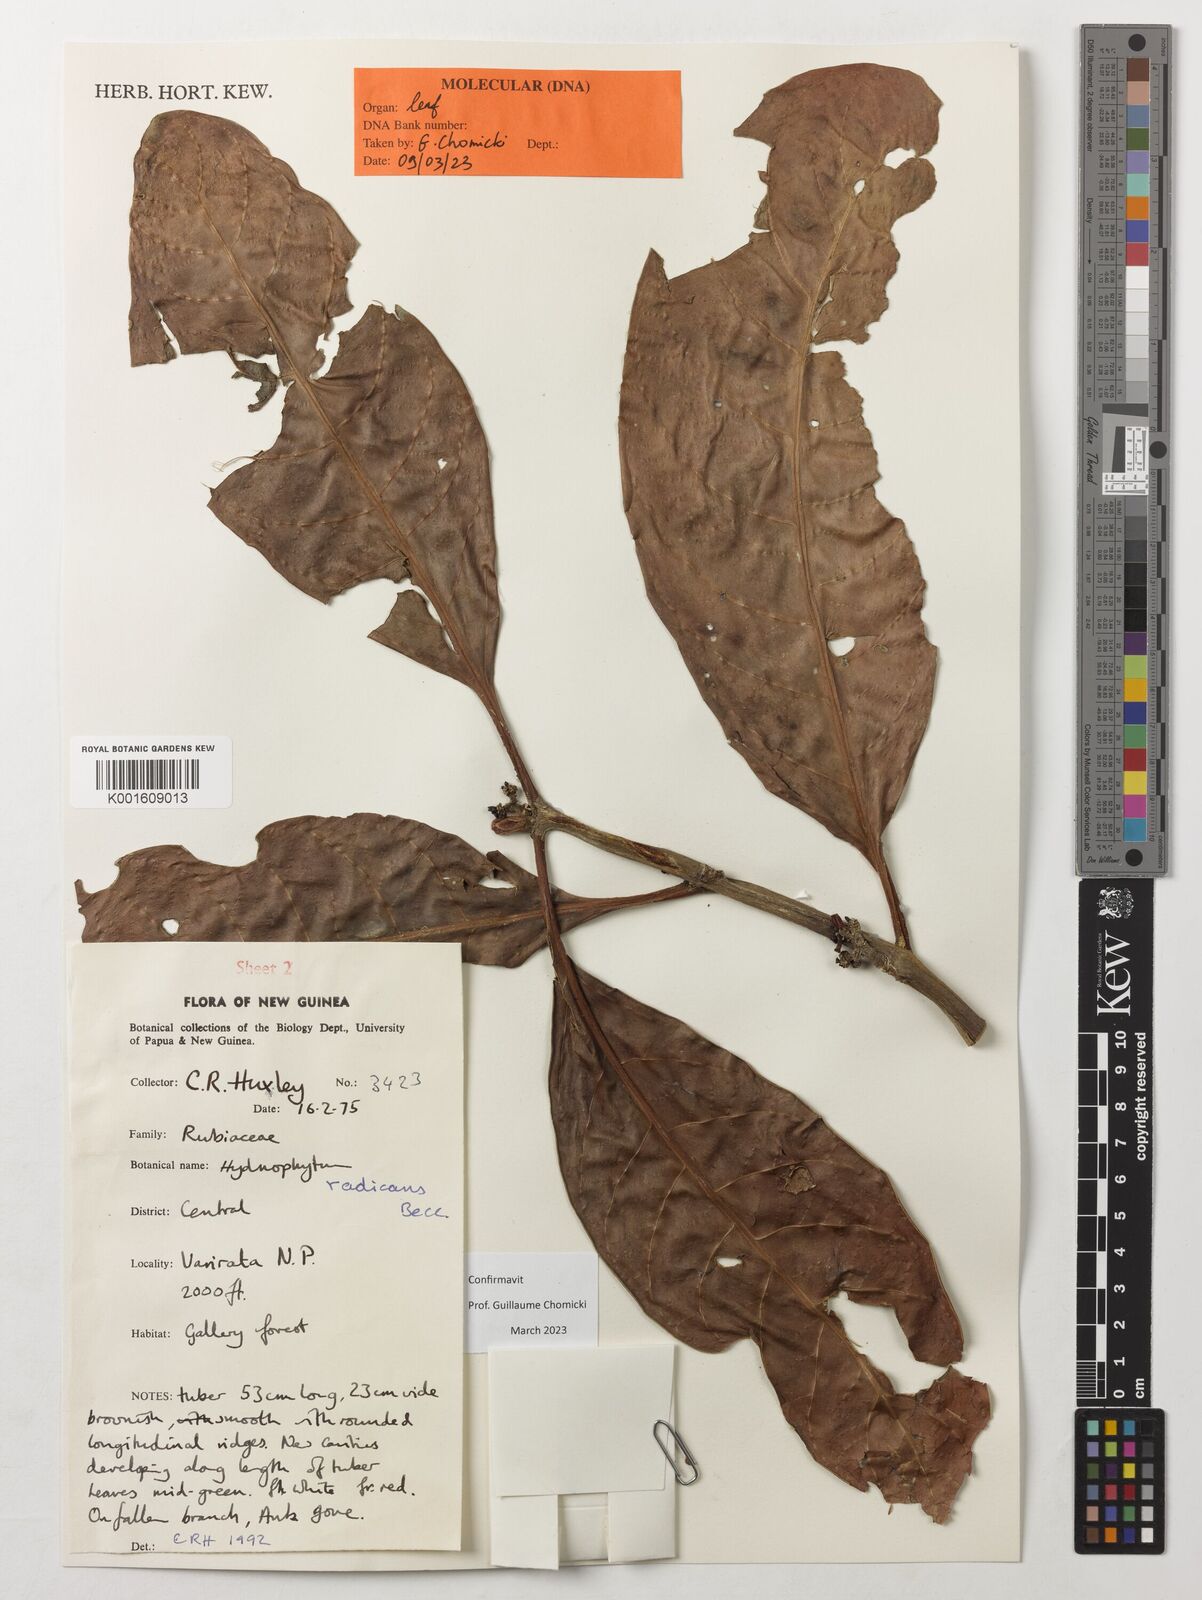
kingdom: Plantae
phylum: Tracheophyta
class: Magnoliopsida
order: Gentianales
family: Rubiaceae
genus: Hydnophytum
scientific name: Hydnophytum radicans
